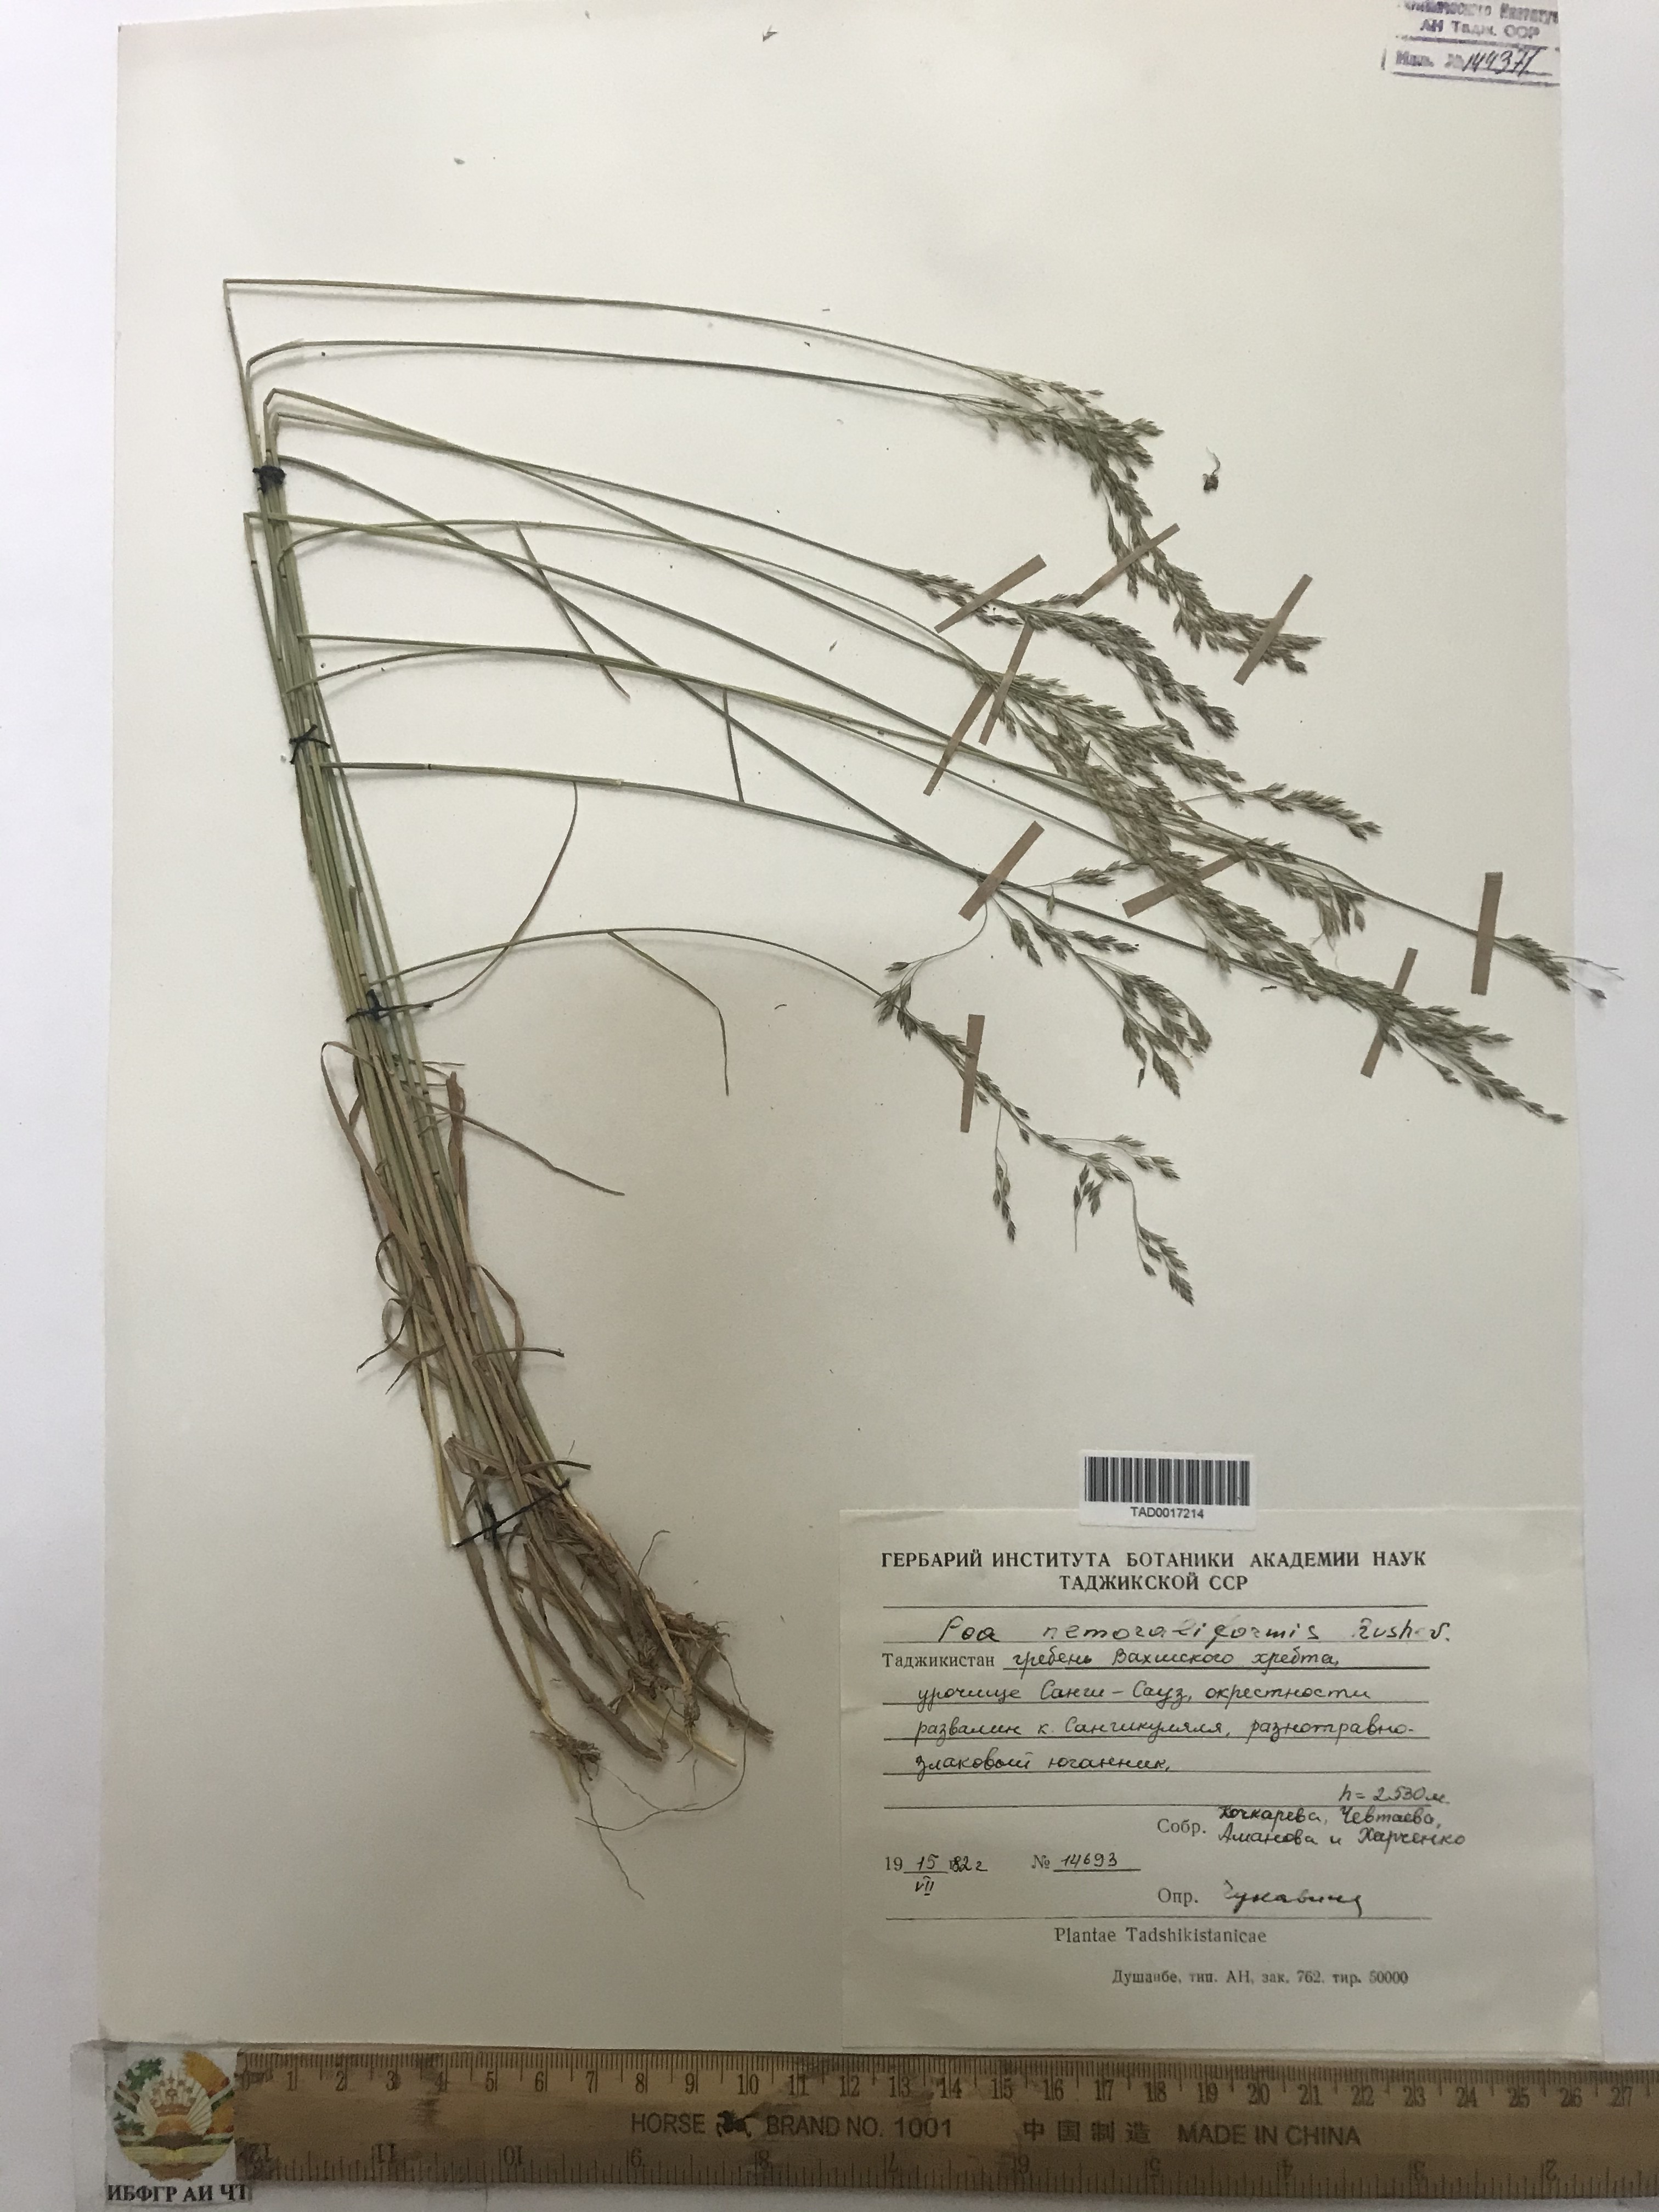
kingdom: Plantae
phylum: Tracheophyta
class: Liliopsida
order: Poales
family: Poaceae
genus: Poa
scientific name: Poa urssulensis
